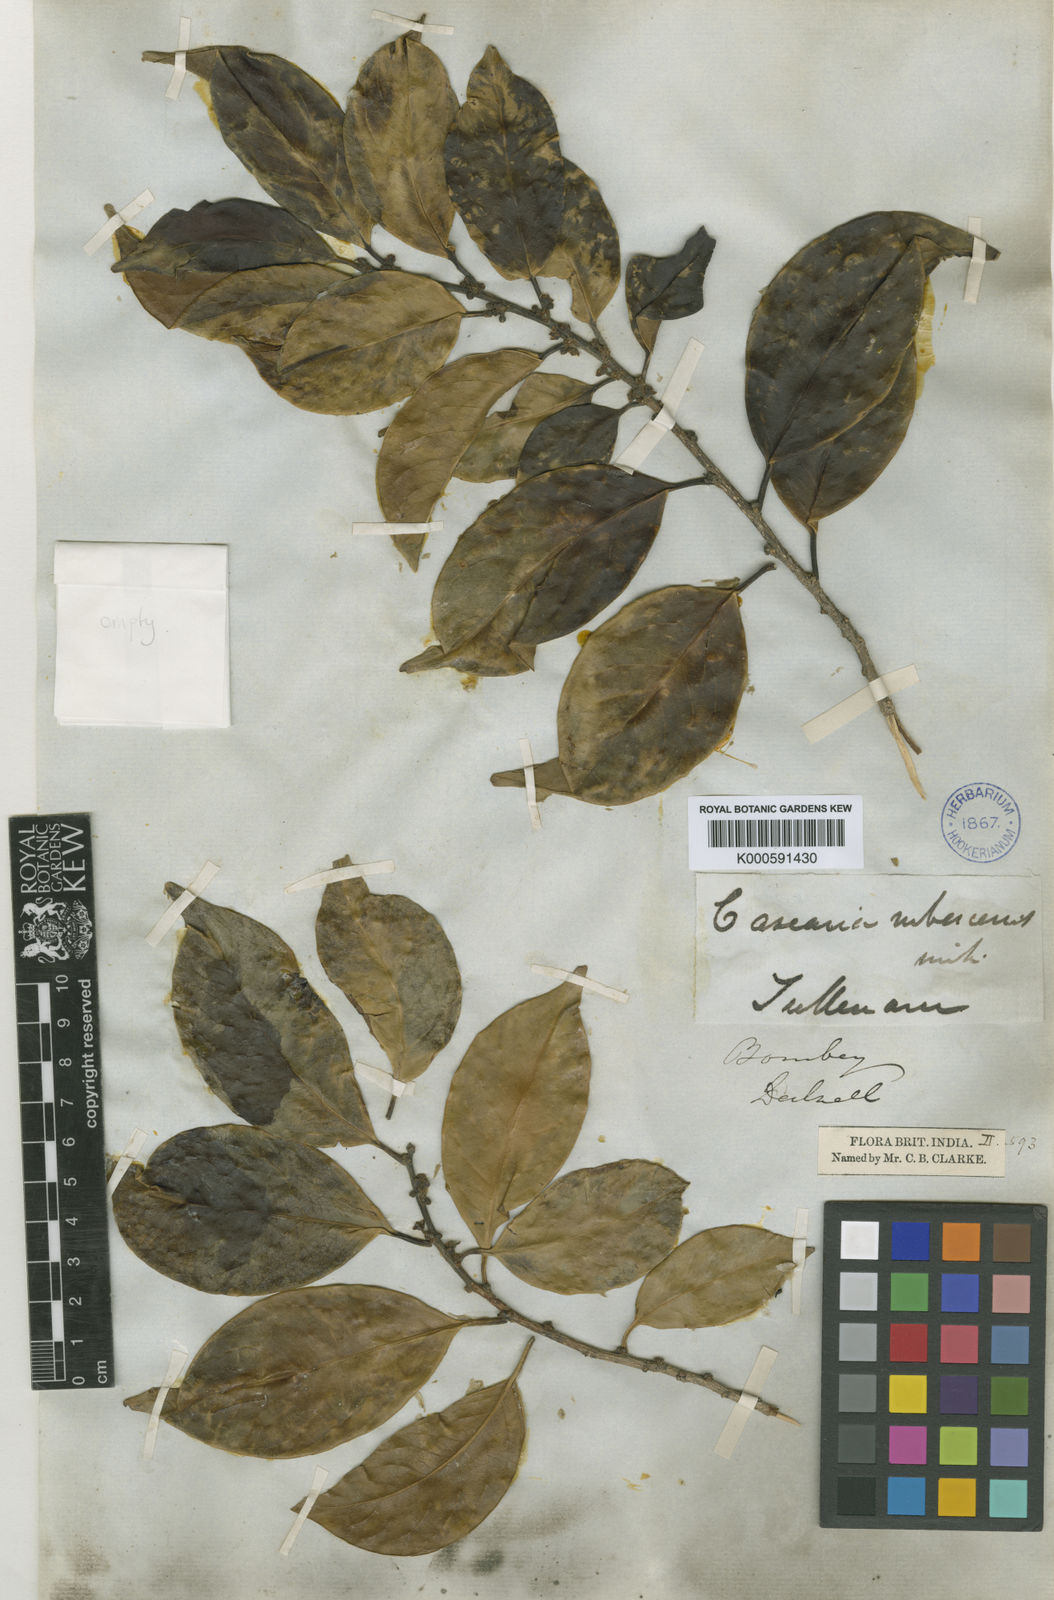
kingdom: Plantae
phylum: Tracheophyta
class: Magnoliopsida
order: Malpighiales
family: Salicaceae
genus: Casearia
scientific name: Casearia rubescens
